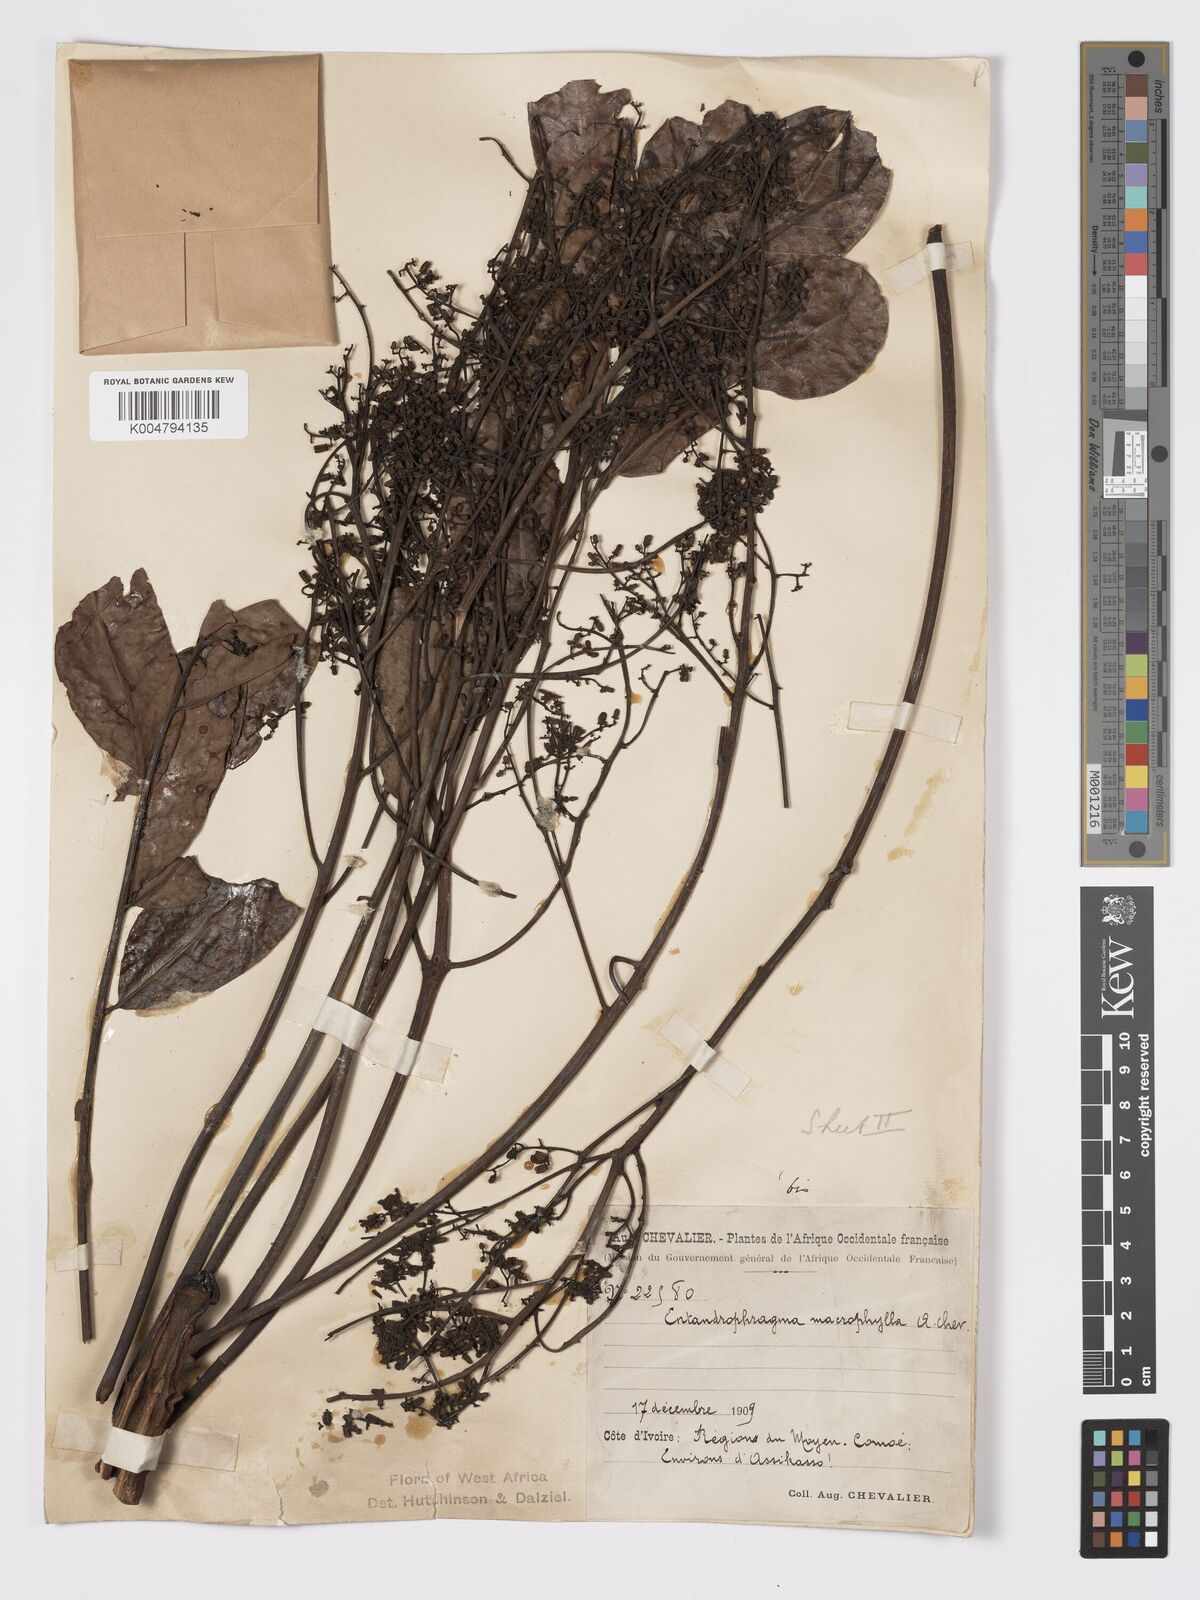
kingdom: Plantae
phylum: Tracheophyta
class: Magnoliopsida
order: Sapindales
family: Meliaceae
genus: Entandrophragma
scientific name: Entandrophragma angolense
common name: African mahogany
